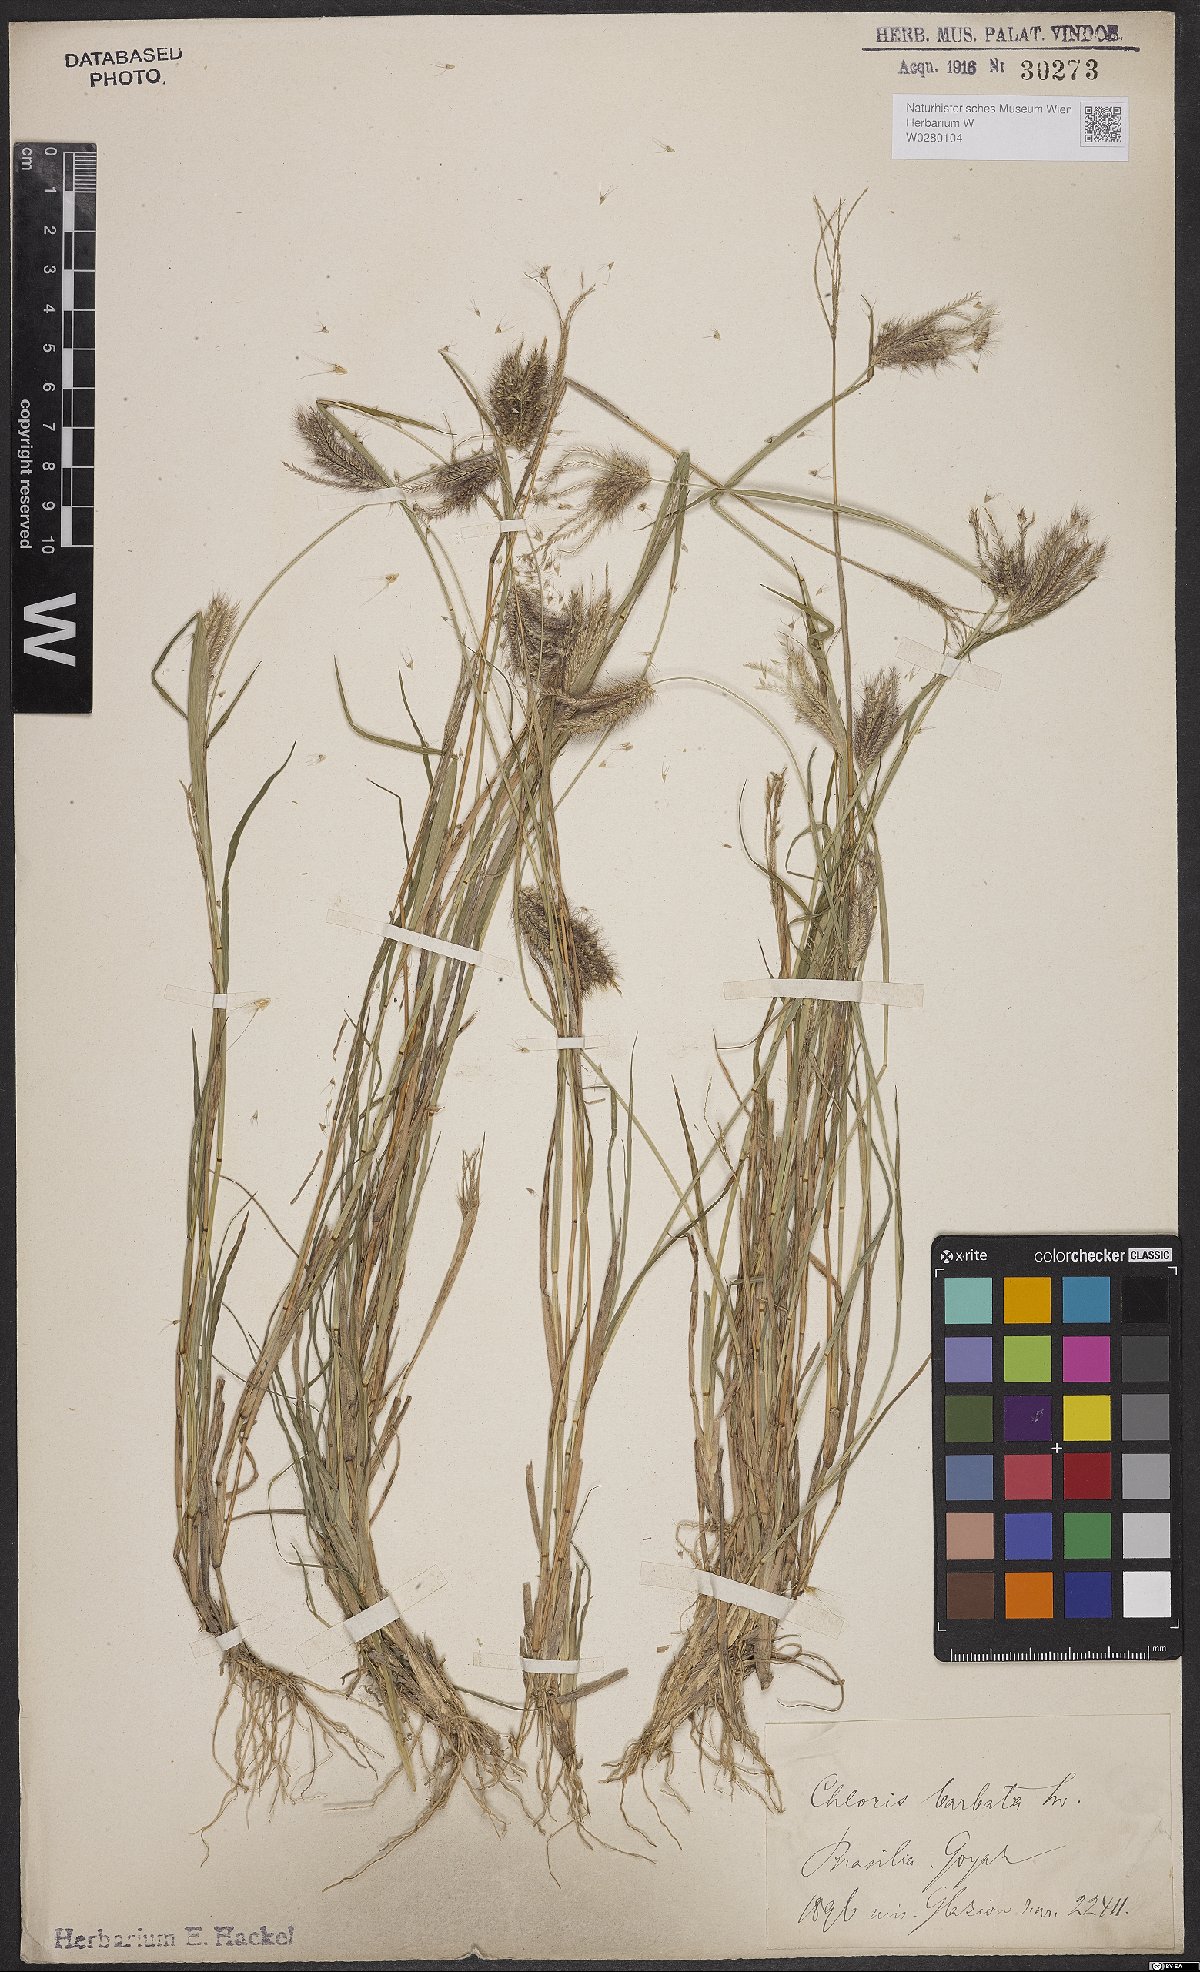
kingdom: Plantae
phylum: Tracheophyta
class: Liliopsida
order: Poales
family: Poaceae
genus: Chloris
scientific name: Chloris barbata
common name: Swollen fingergrass
